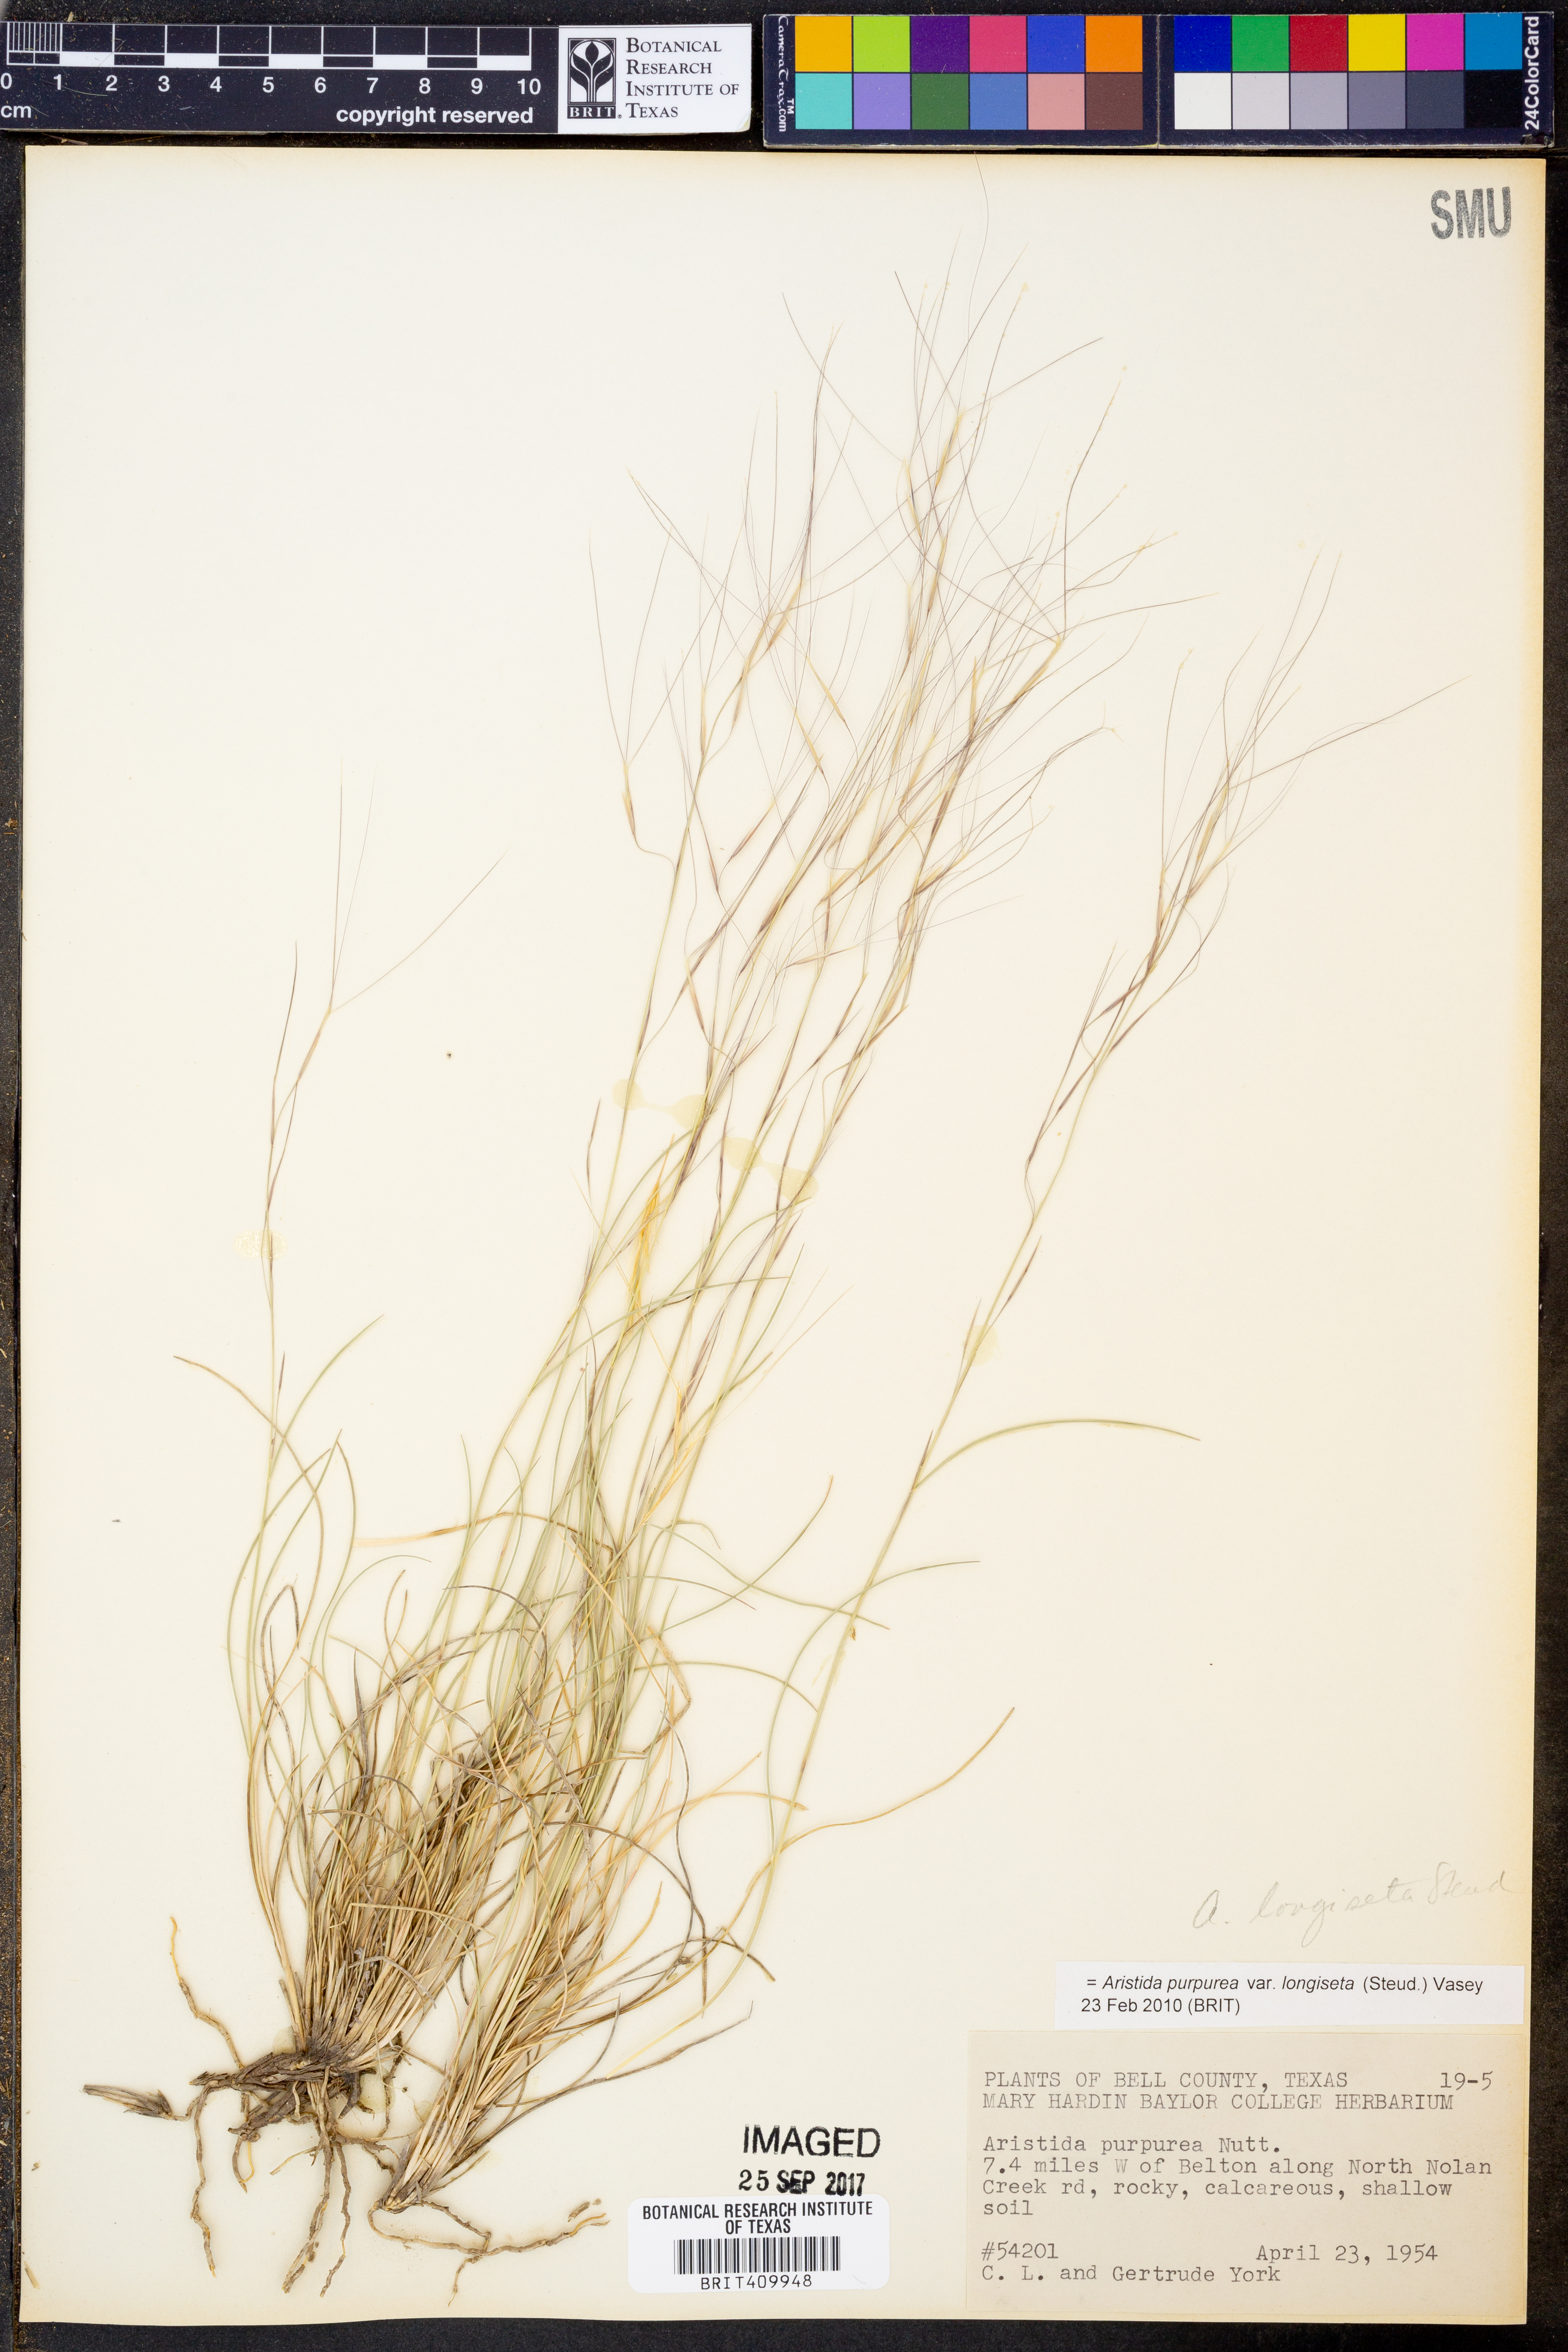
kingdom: Plantae
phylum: Tracheophyta
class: Liliopsida
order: Poales
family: Poaceae
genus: Aristida
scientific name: Aristida longiseta
